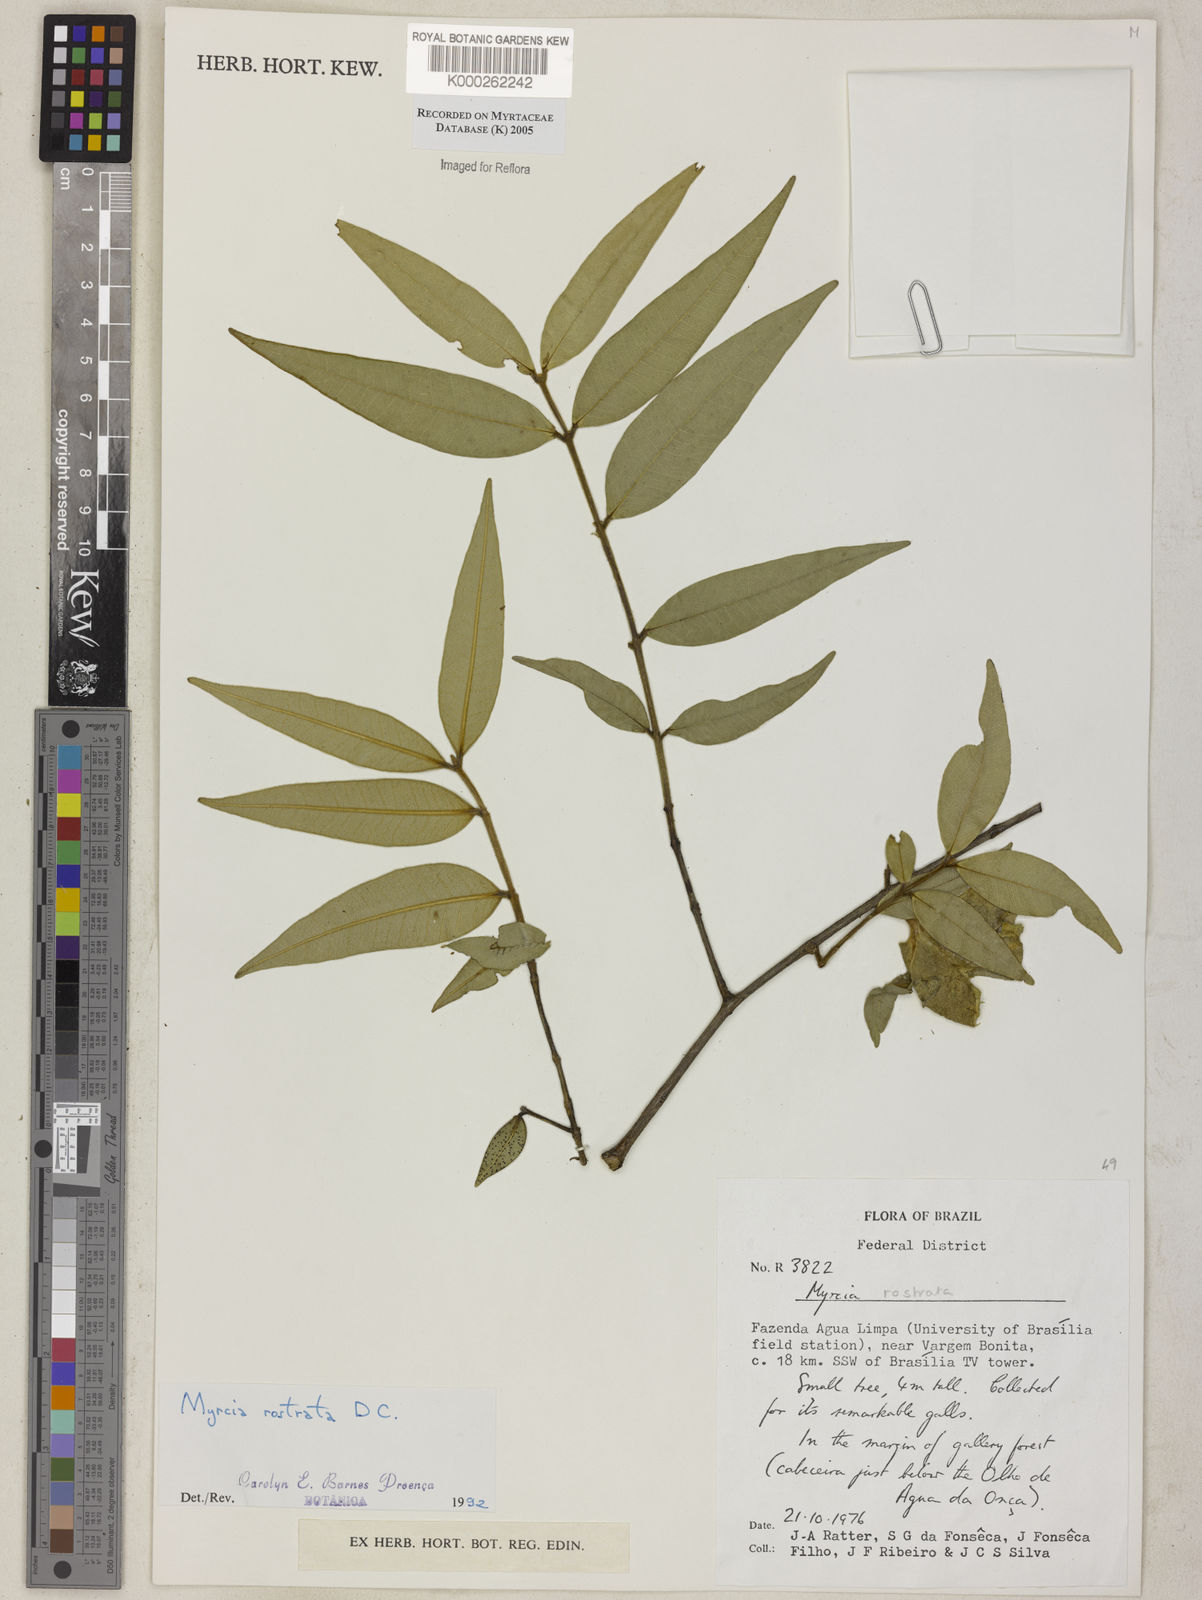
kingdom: Plantae
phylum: Tracheophyta
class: Magnoliopsida
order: Myrtales
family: Myrtaceae
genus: Myrcia
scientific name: Myrcia splendens
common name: Surinam cherry
